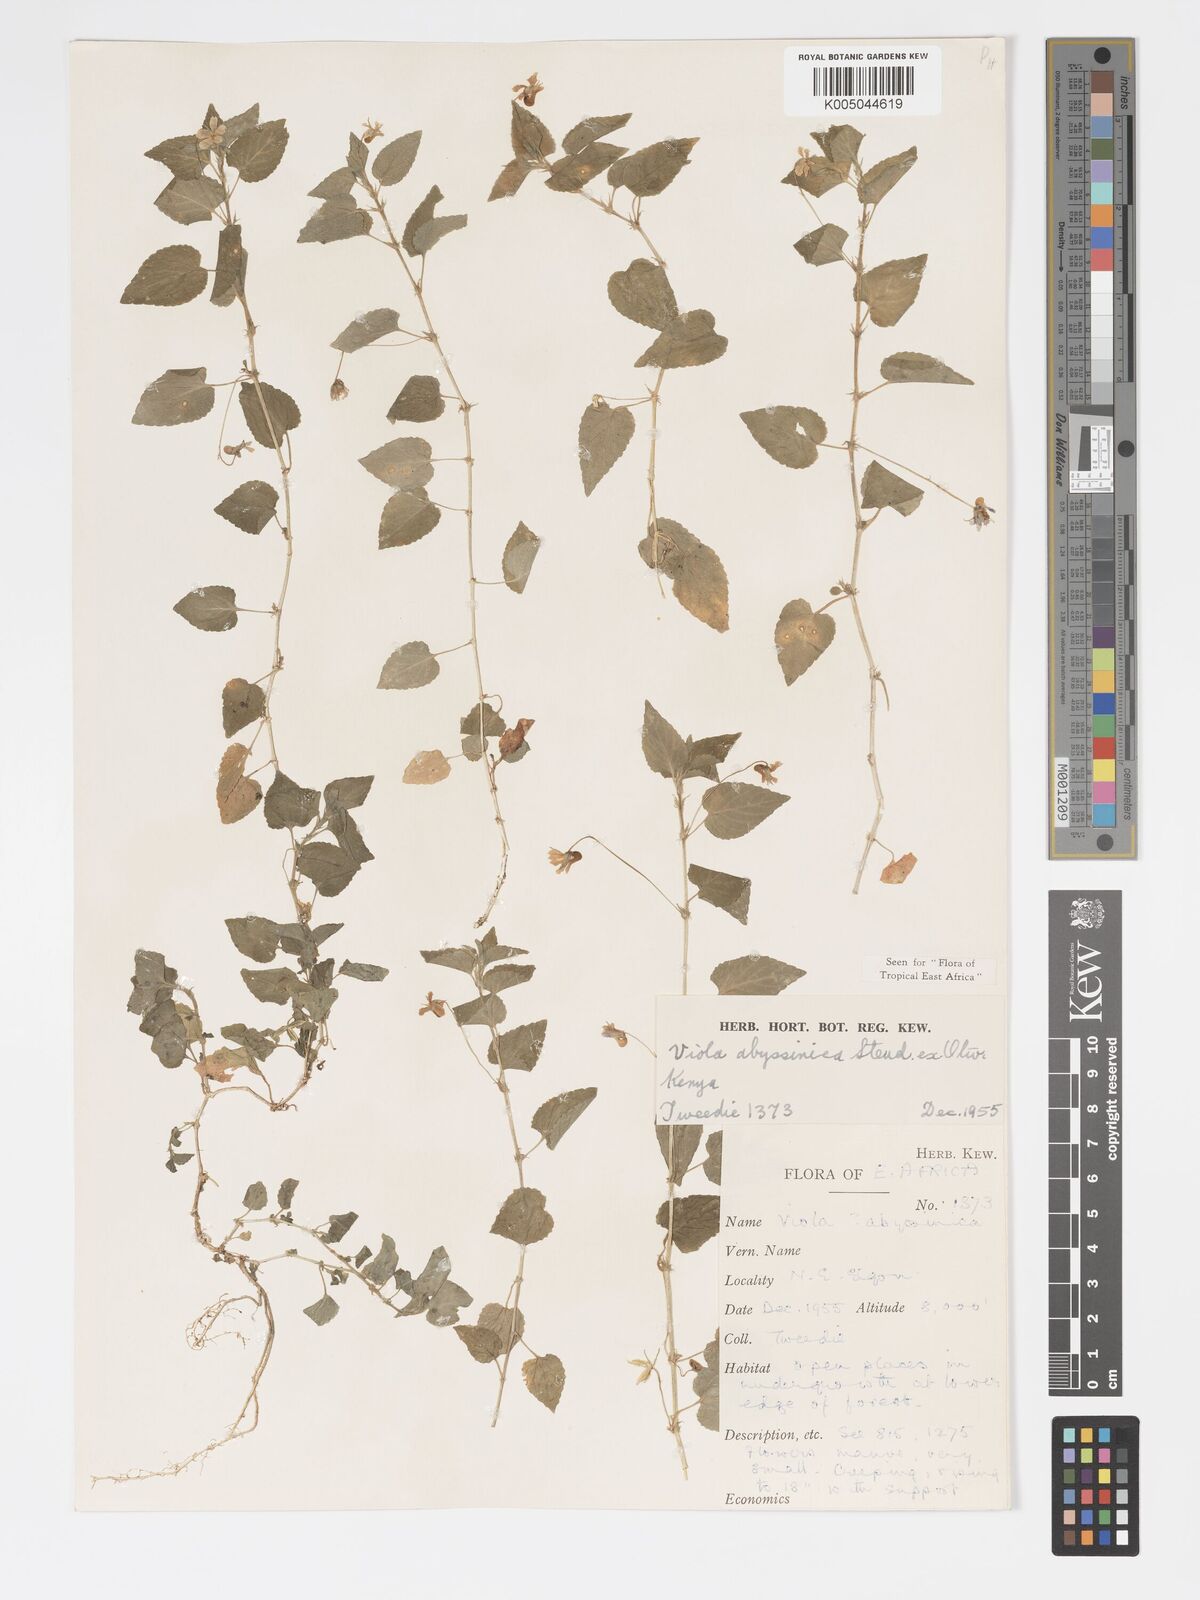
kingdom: Plantae
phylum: Tracheophyta
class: Magnoliopsida
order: Malpighiales
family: Violaceae
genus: Viola
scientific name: Viola abyssinica
